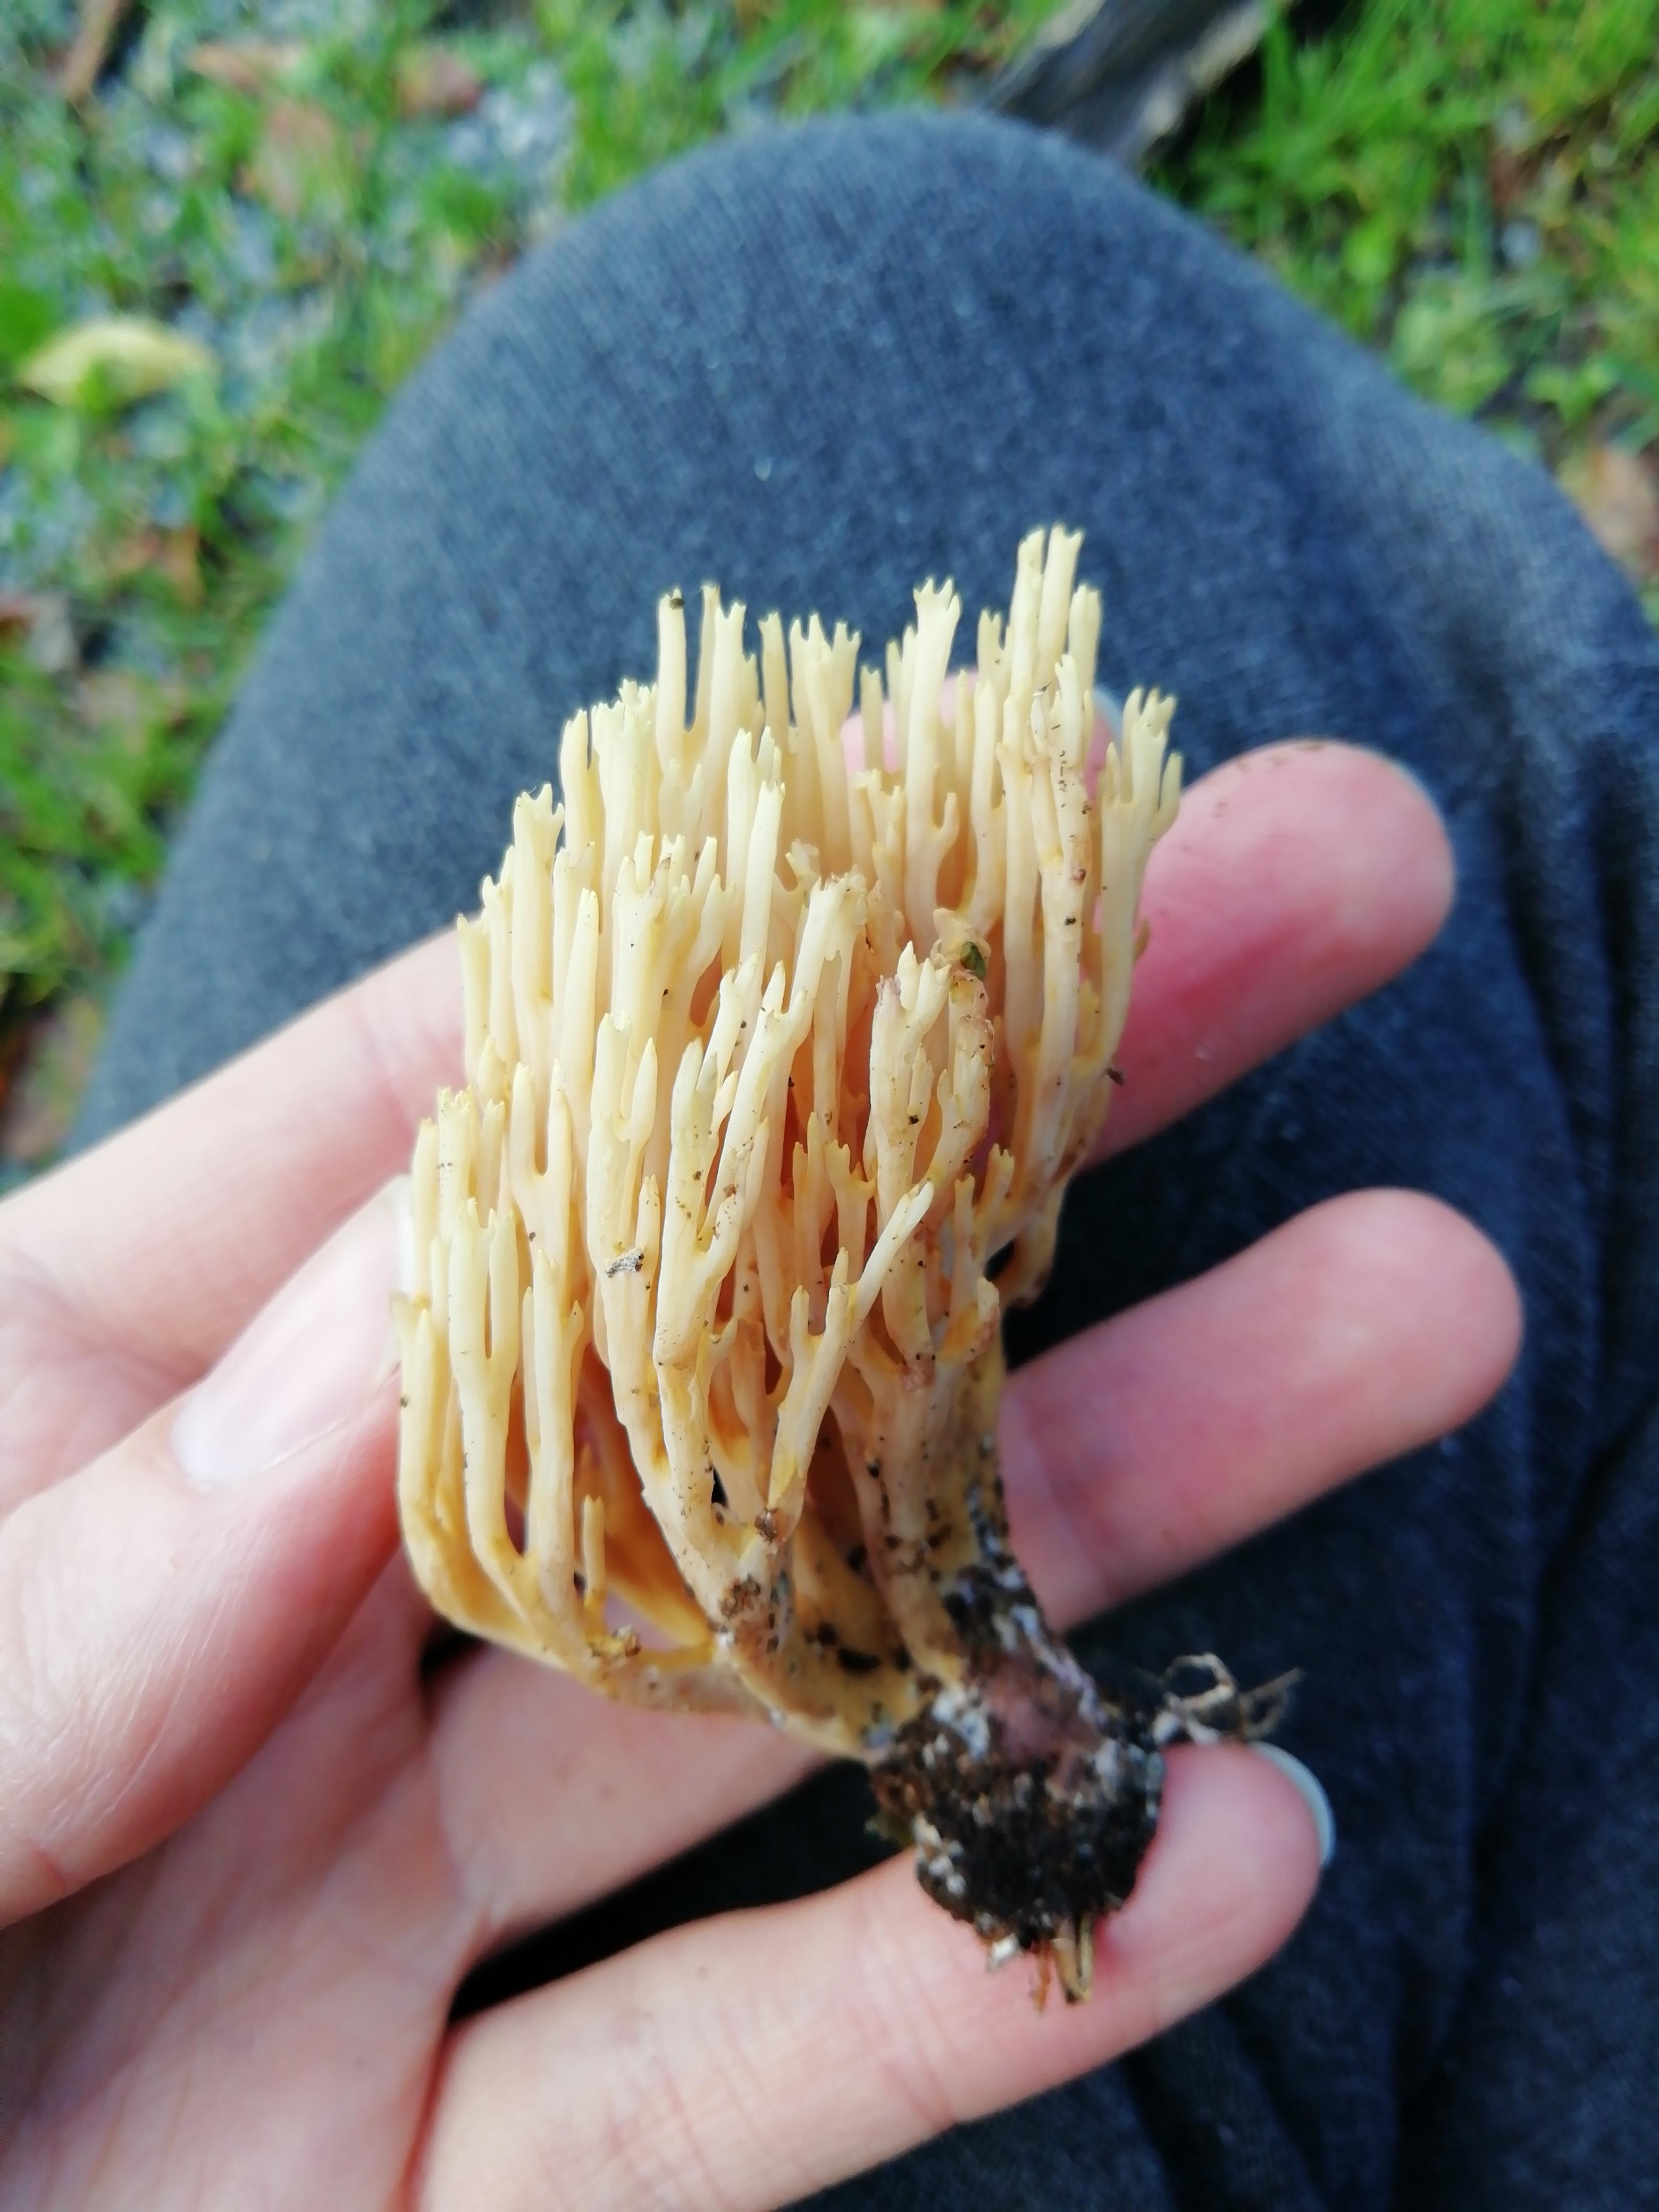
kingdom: Fungi
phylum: Basidiomycota
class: Agaricomycetes
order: Gomphales
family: Gomphaceae
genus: Ramaria
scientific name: Ramaria stricta
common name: rank koralsvamp
